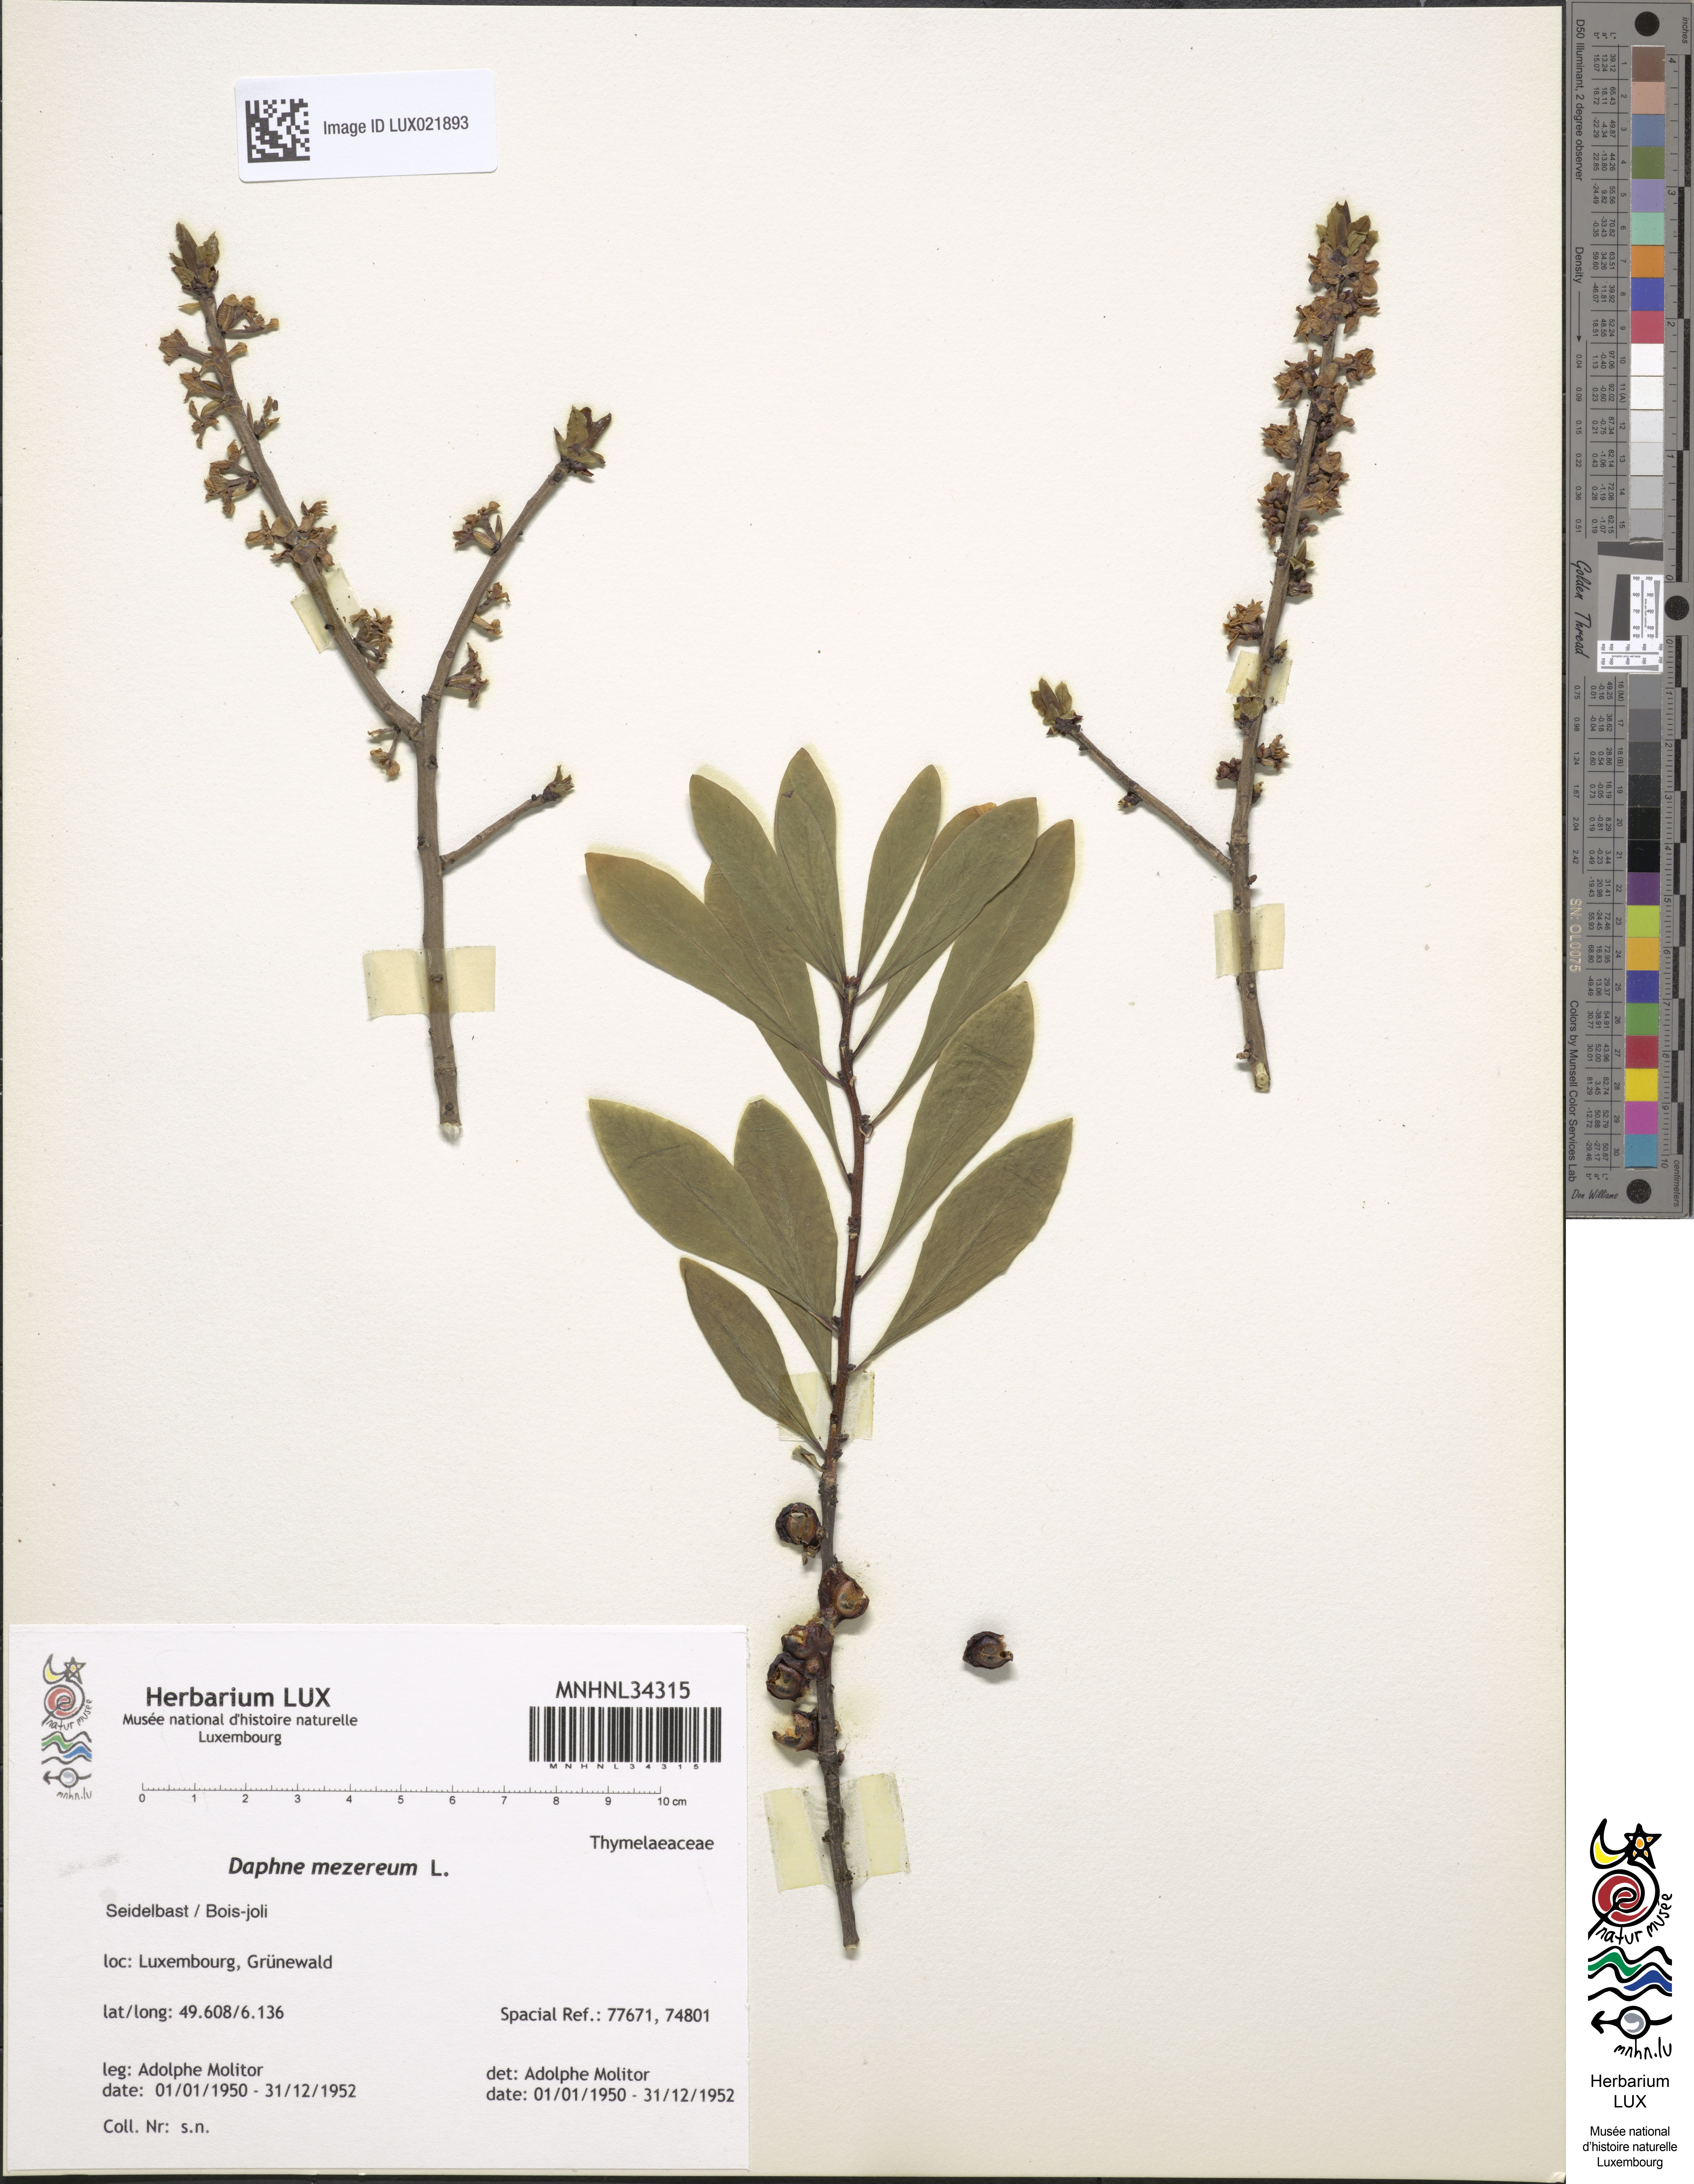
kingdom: Plantae
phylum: Tracheophyta
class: Magnoliopsida
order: Malvales
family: Thymelaeaceae
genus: Daphne
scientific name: Daphne mezereum
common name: Mezereon
